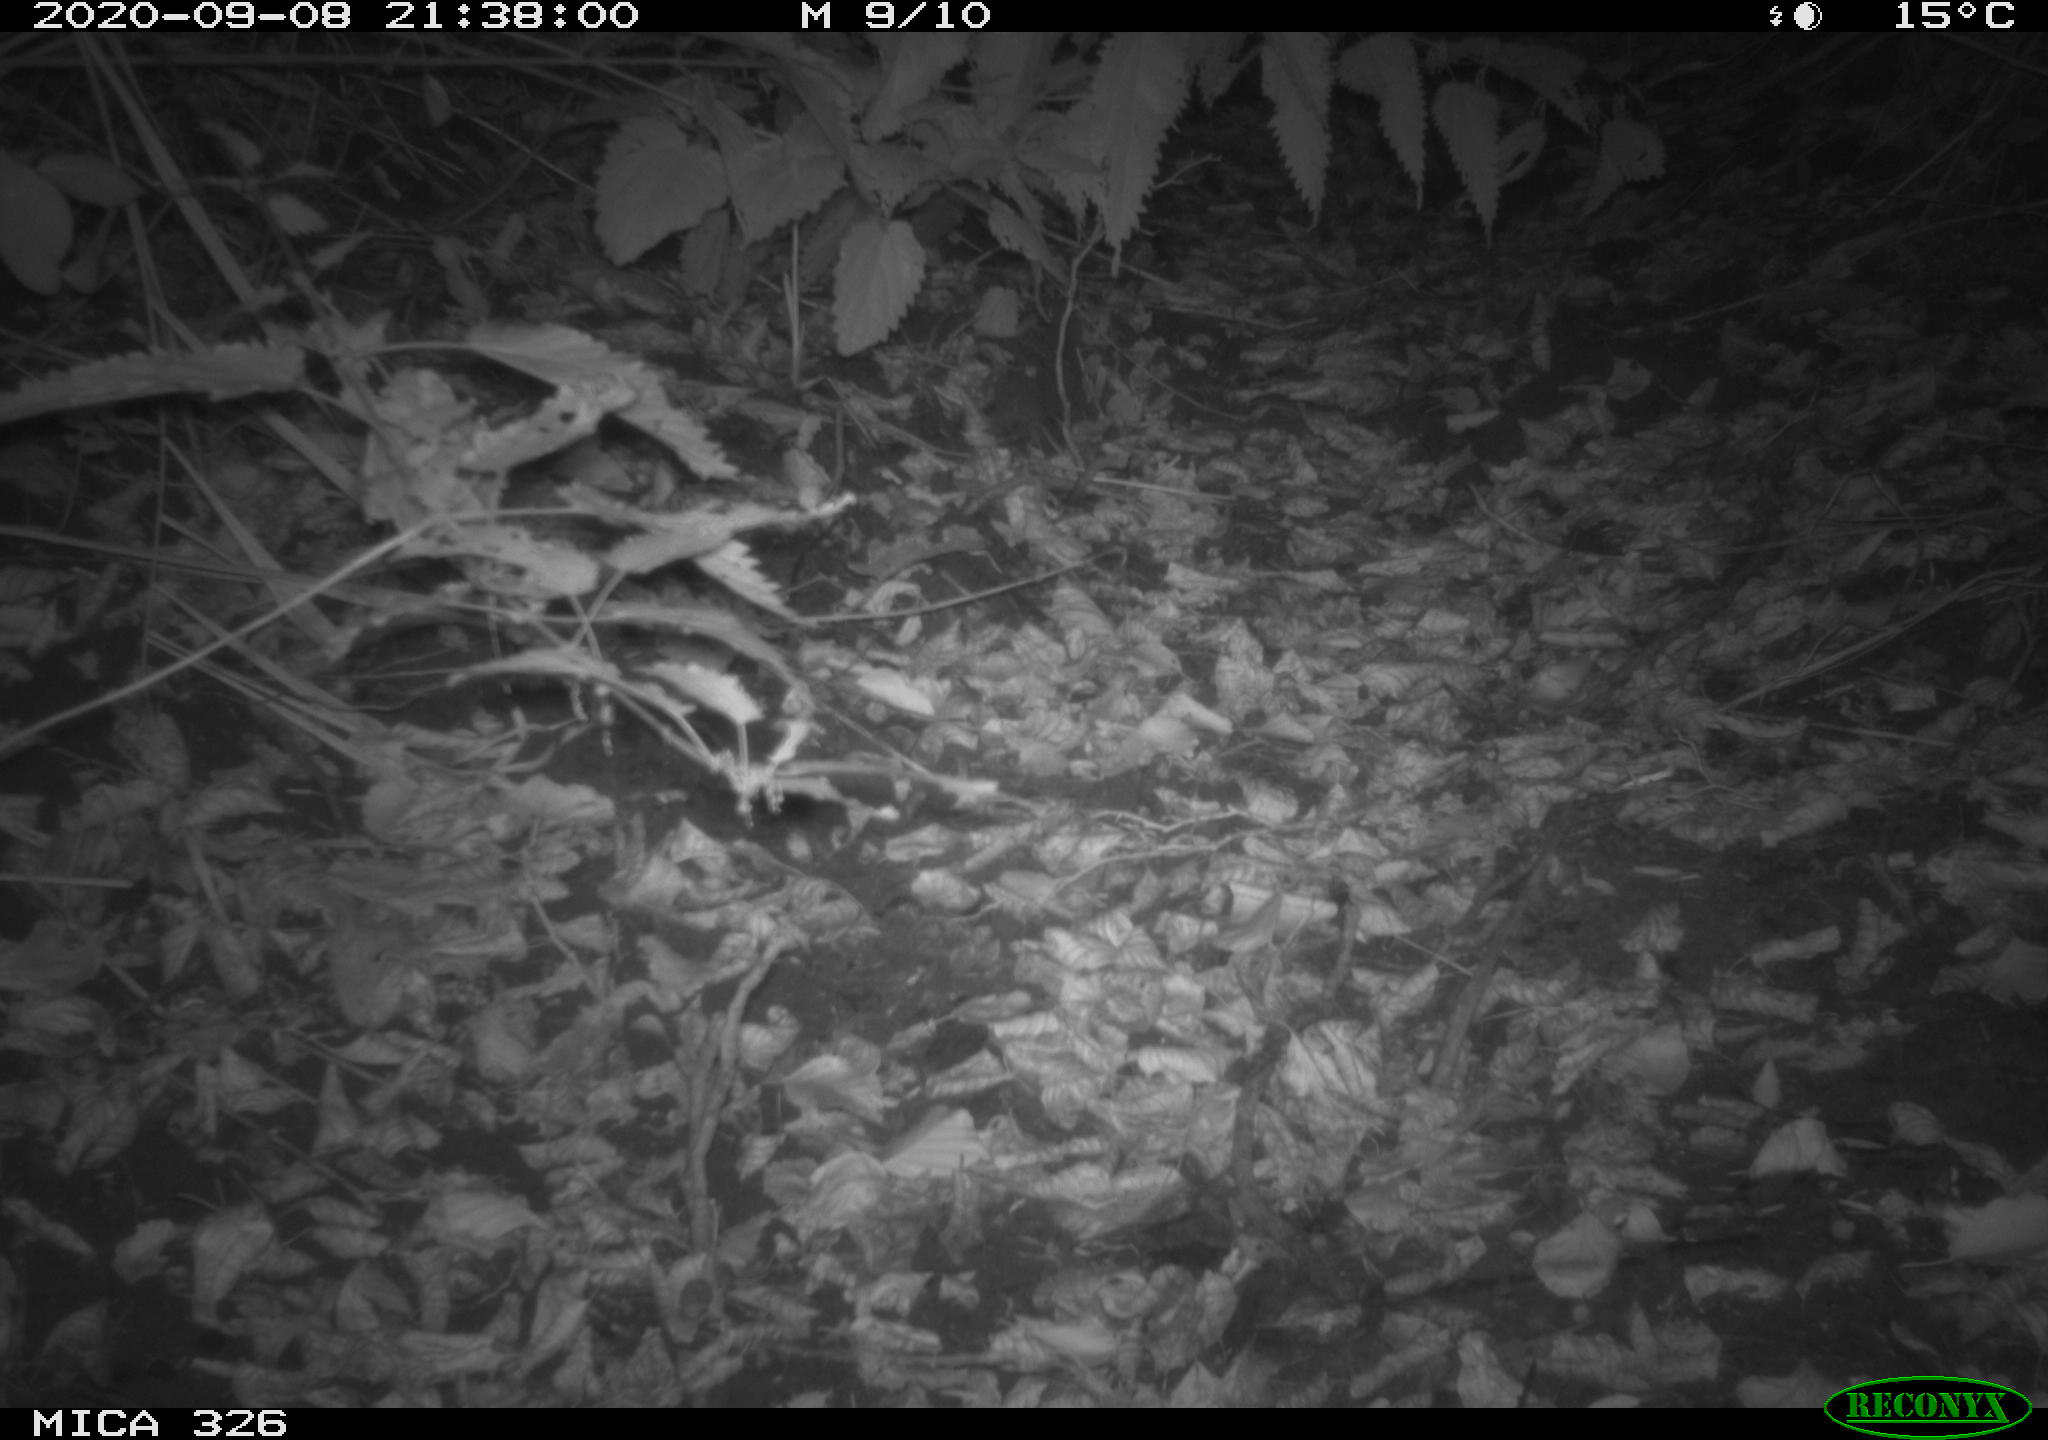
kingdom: Animalia
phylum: Chordata
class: Mammalia
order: Carnivora
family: Mustelidae
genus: Lutra
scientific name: Lutra lutra
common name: European otter
